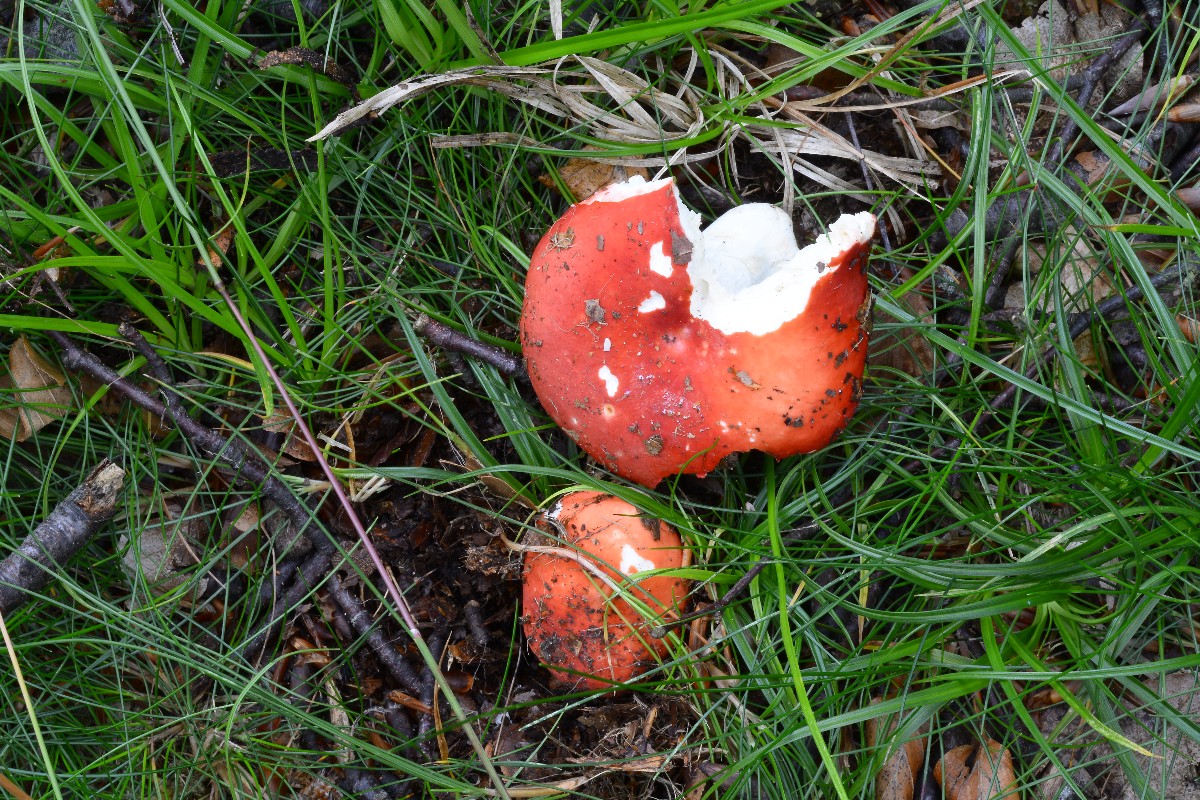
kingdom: Fungi
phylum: Basidiomycota
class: Agaricomycetes
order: Russulales
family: Russulaceae
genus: Russula
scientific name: Russula rosea
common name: fastkødet skørhat
